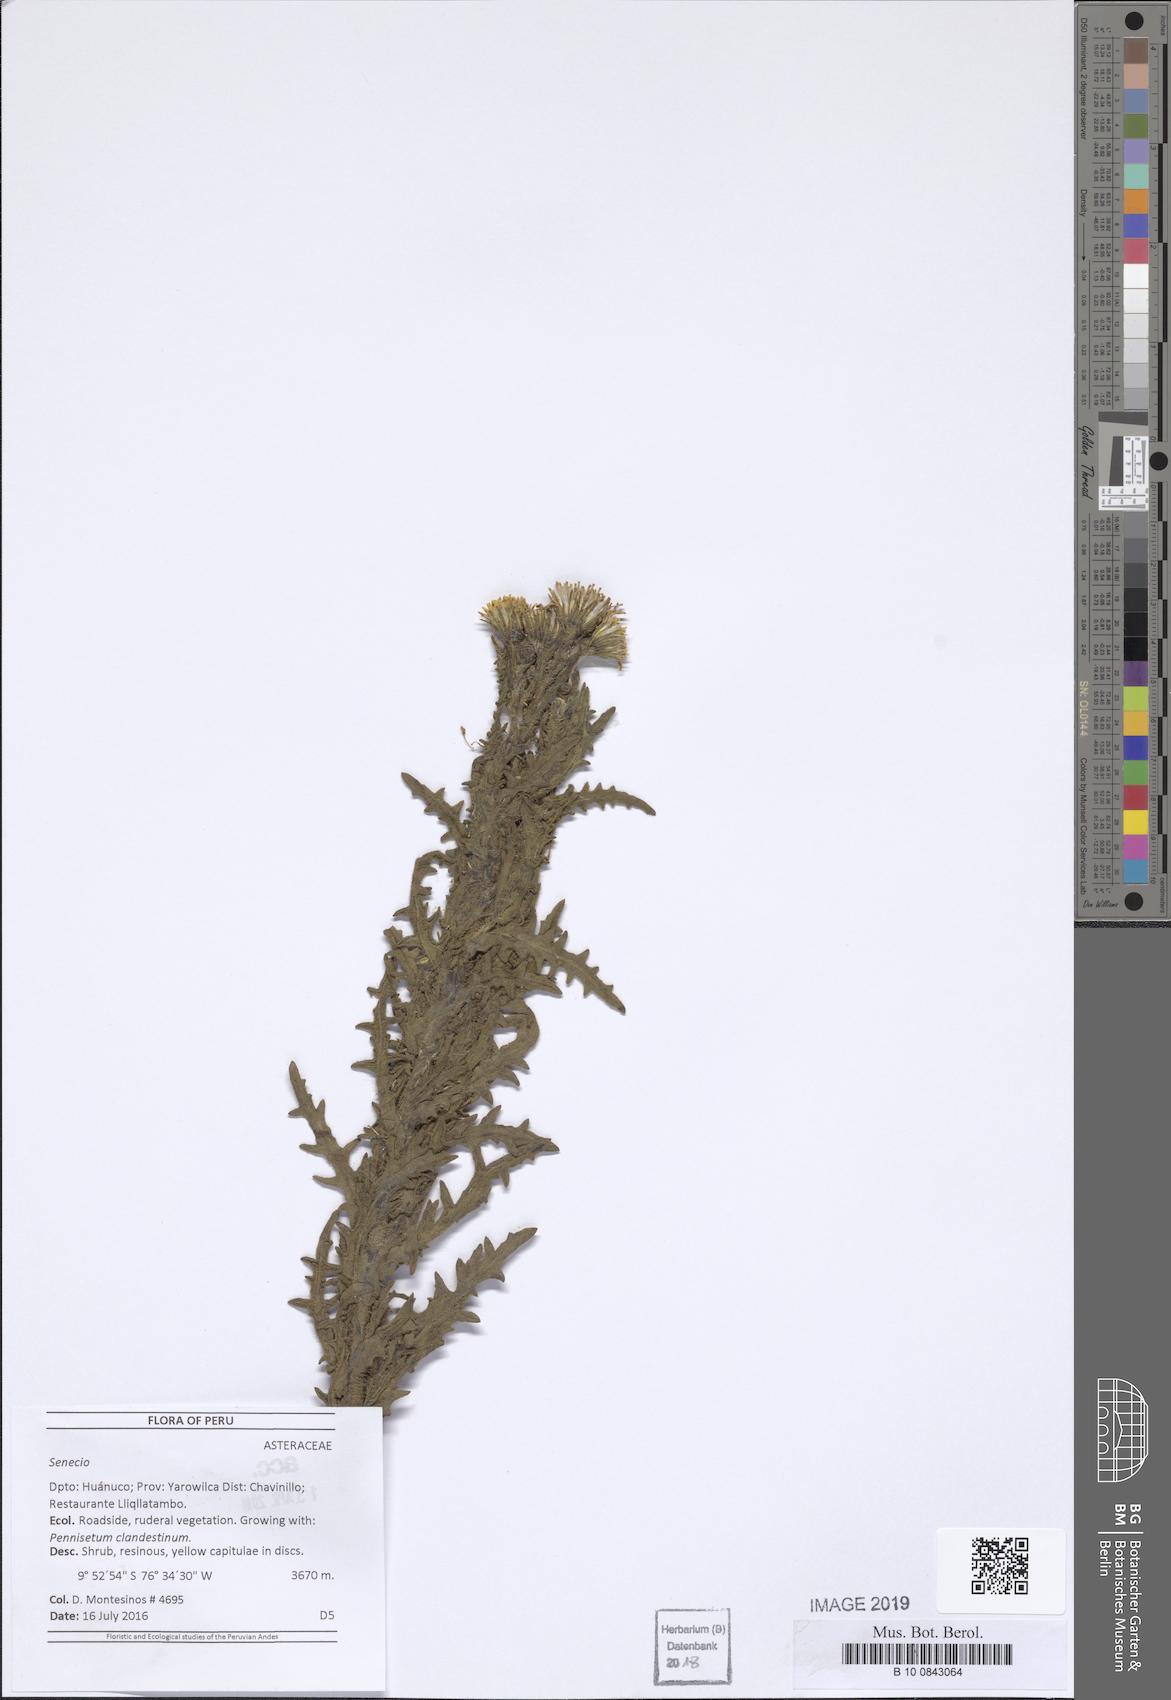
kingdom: Plantae
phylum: Tracheophyta
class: Magnoliopsida
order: Asterales
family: Asteraceae
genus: Senecio
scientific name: Senecio chavanilloensis
